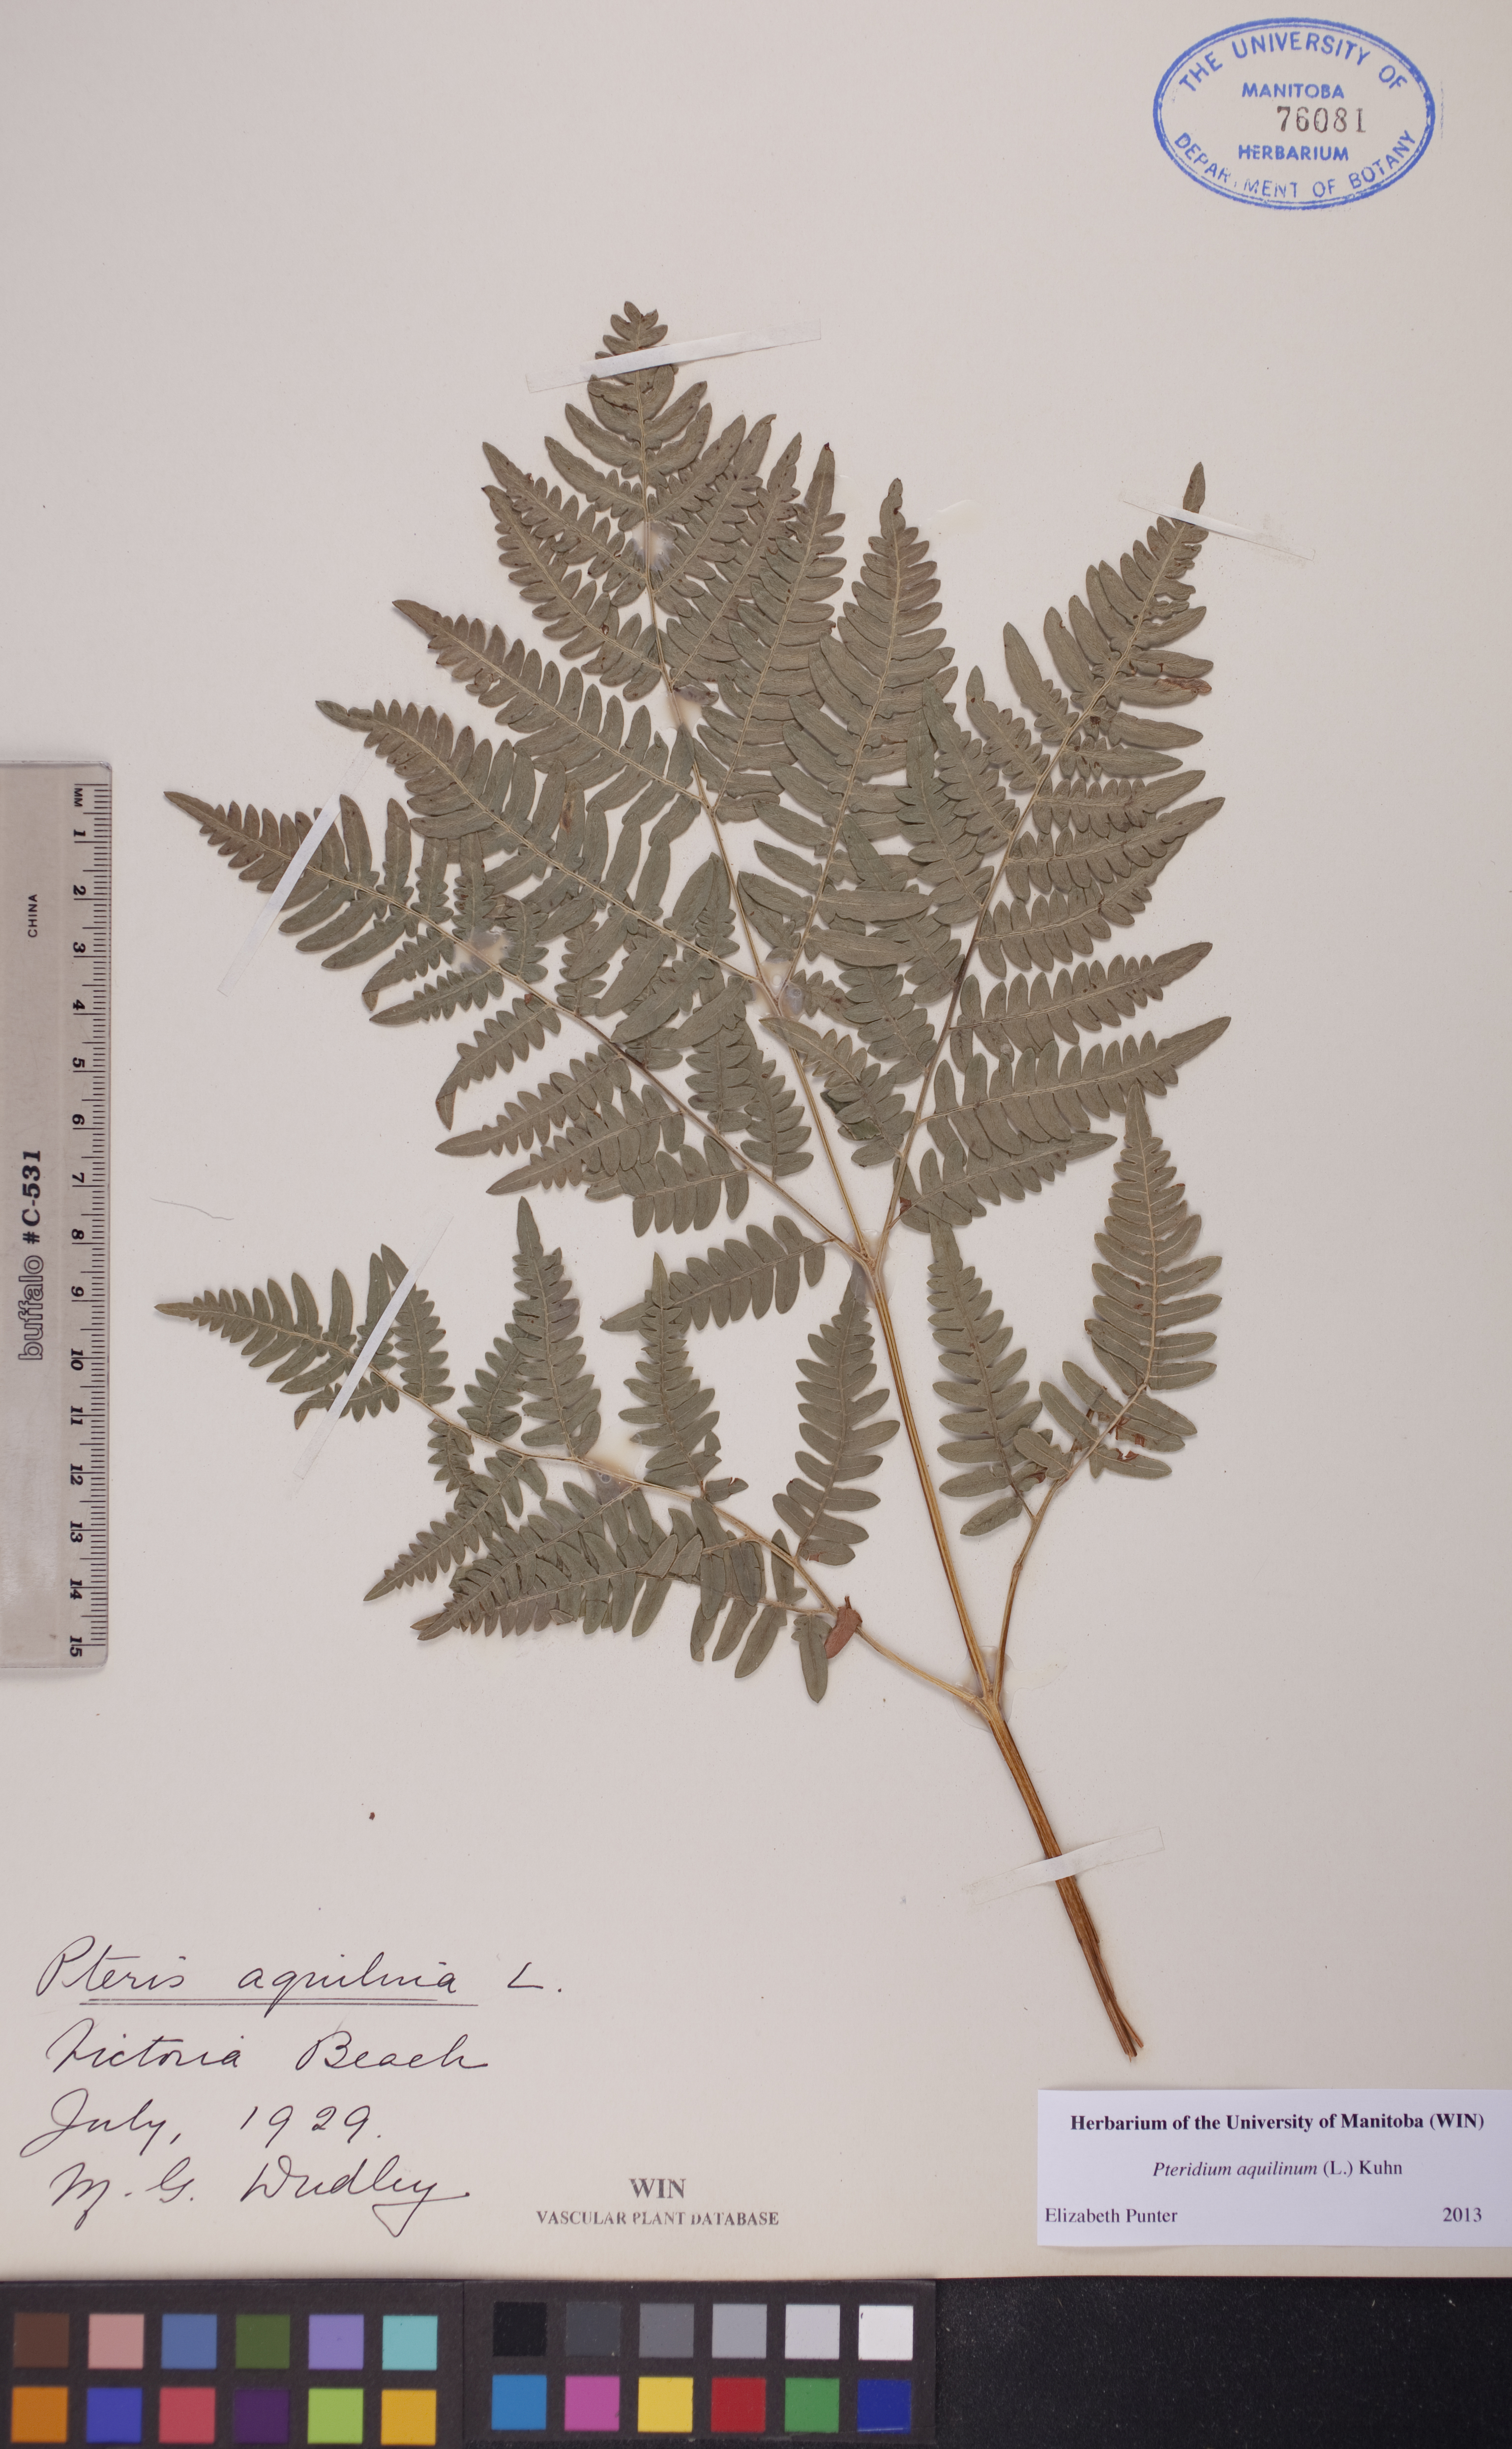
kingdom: Plantae
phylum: Tracheophyta
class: Polypodiopsida
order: Polypodiales
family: Dennstaedtiaceae
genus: Pteridium
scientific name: Pteridium aquilinum
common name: Bracken
